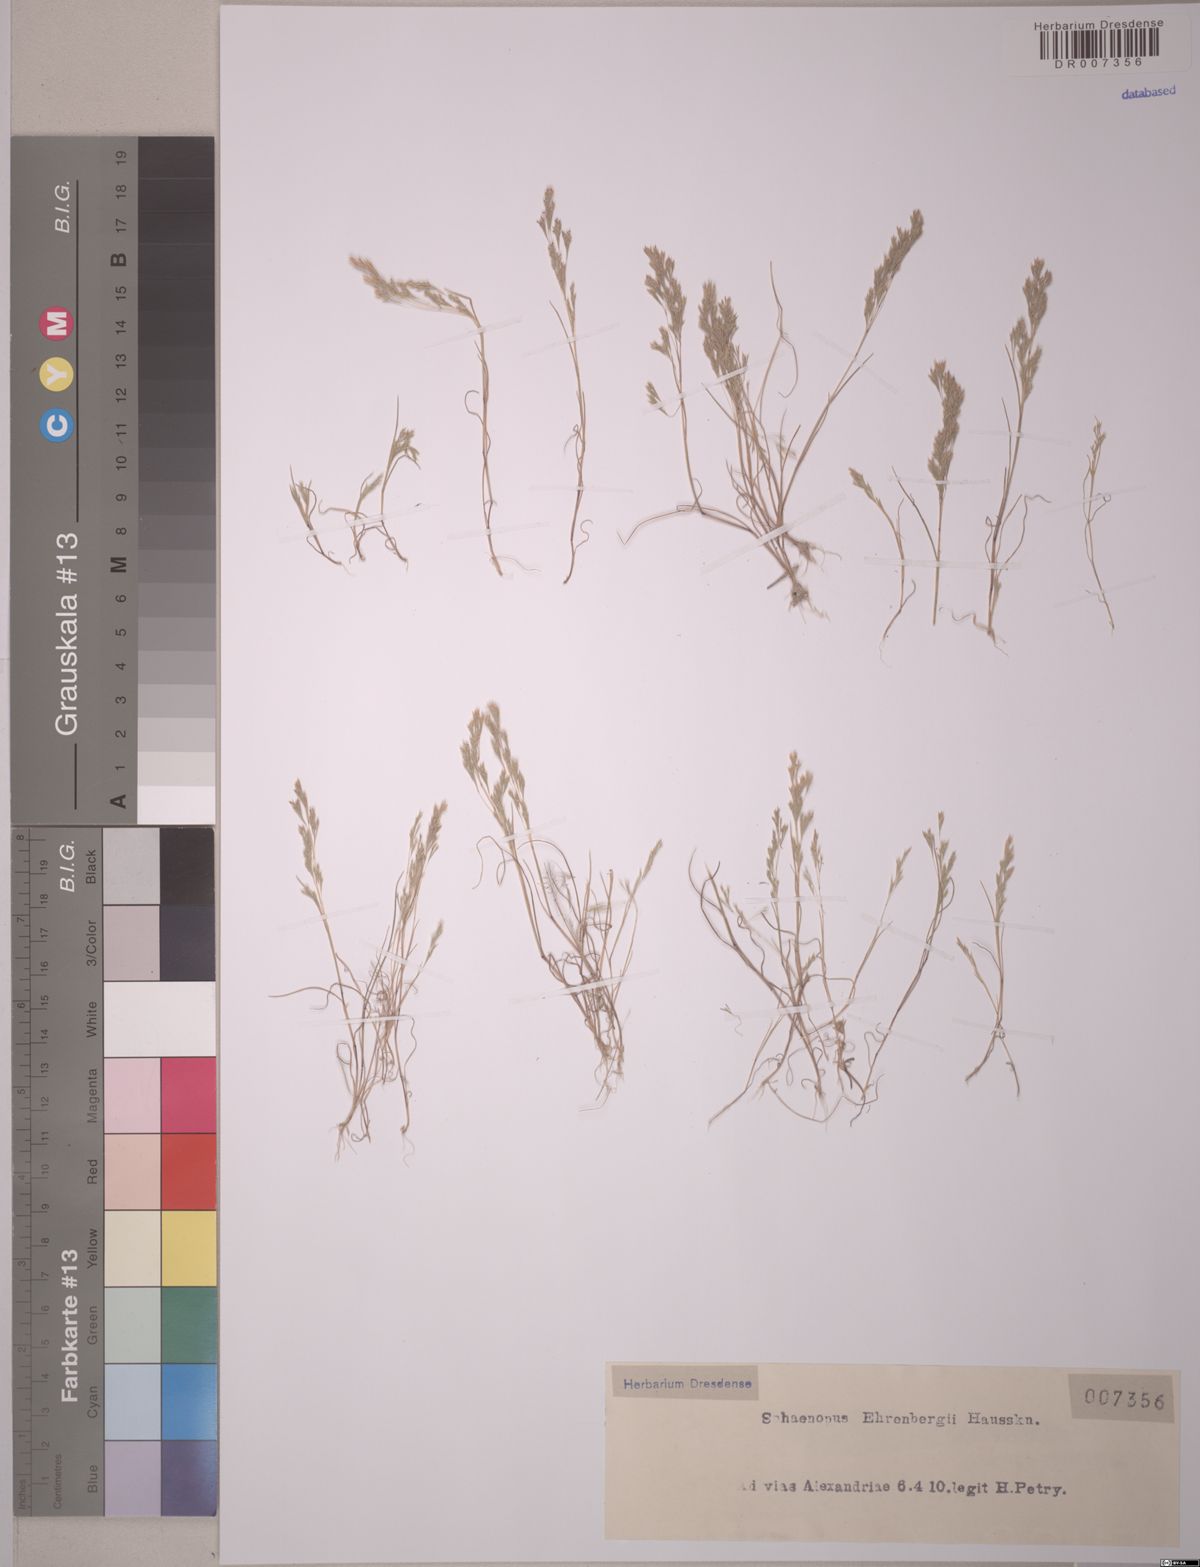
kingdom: Plantae
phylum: Tracheophyta
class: Liliopsida
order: Poales
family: Poaceae
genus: Sphenopus
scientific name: Sphenopus ehrenbergii
